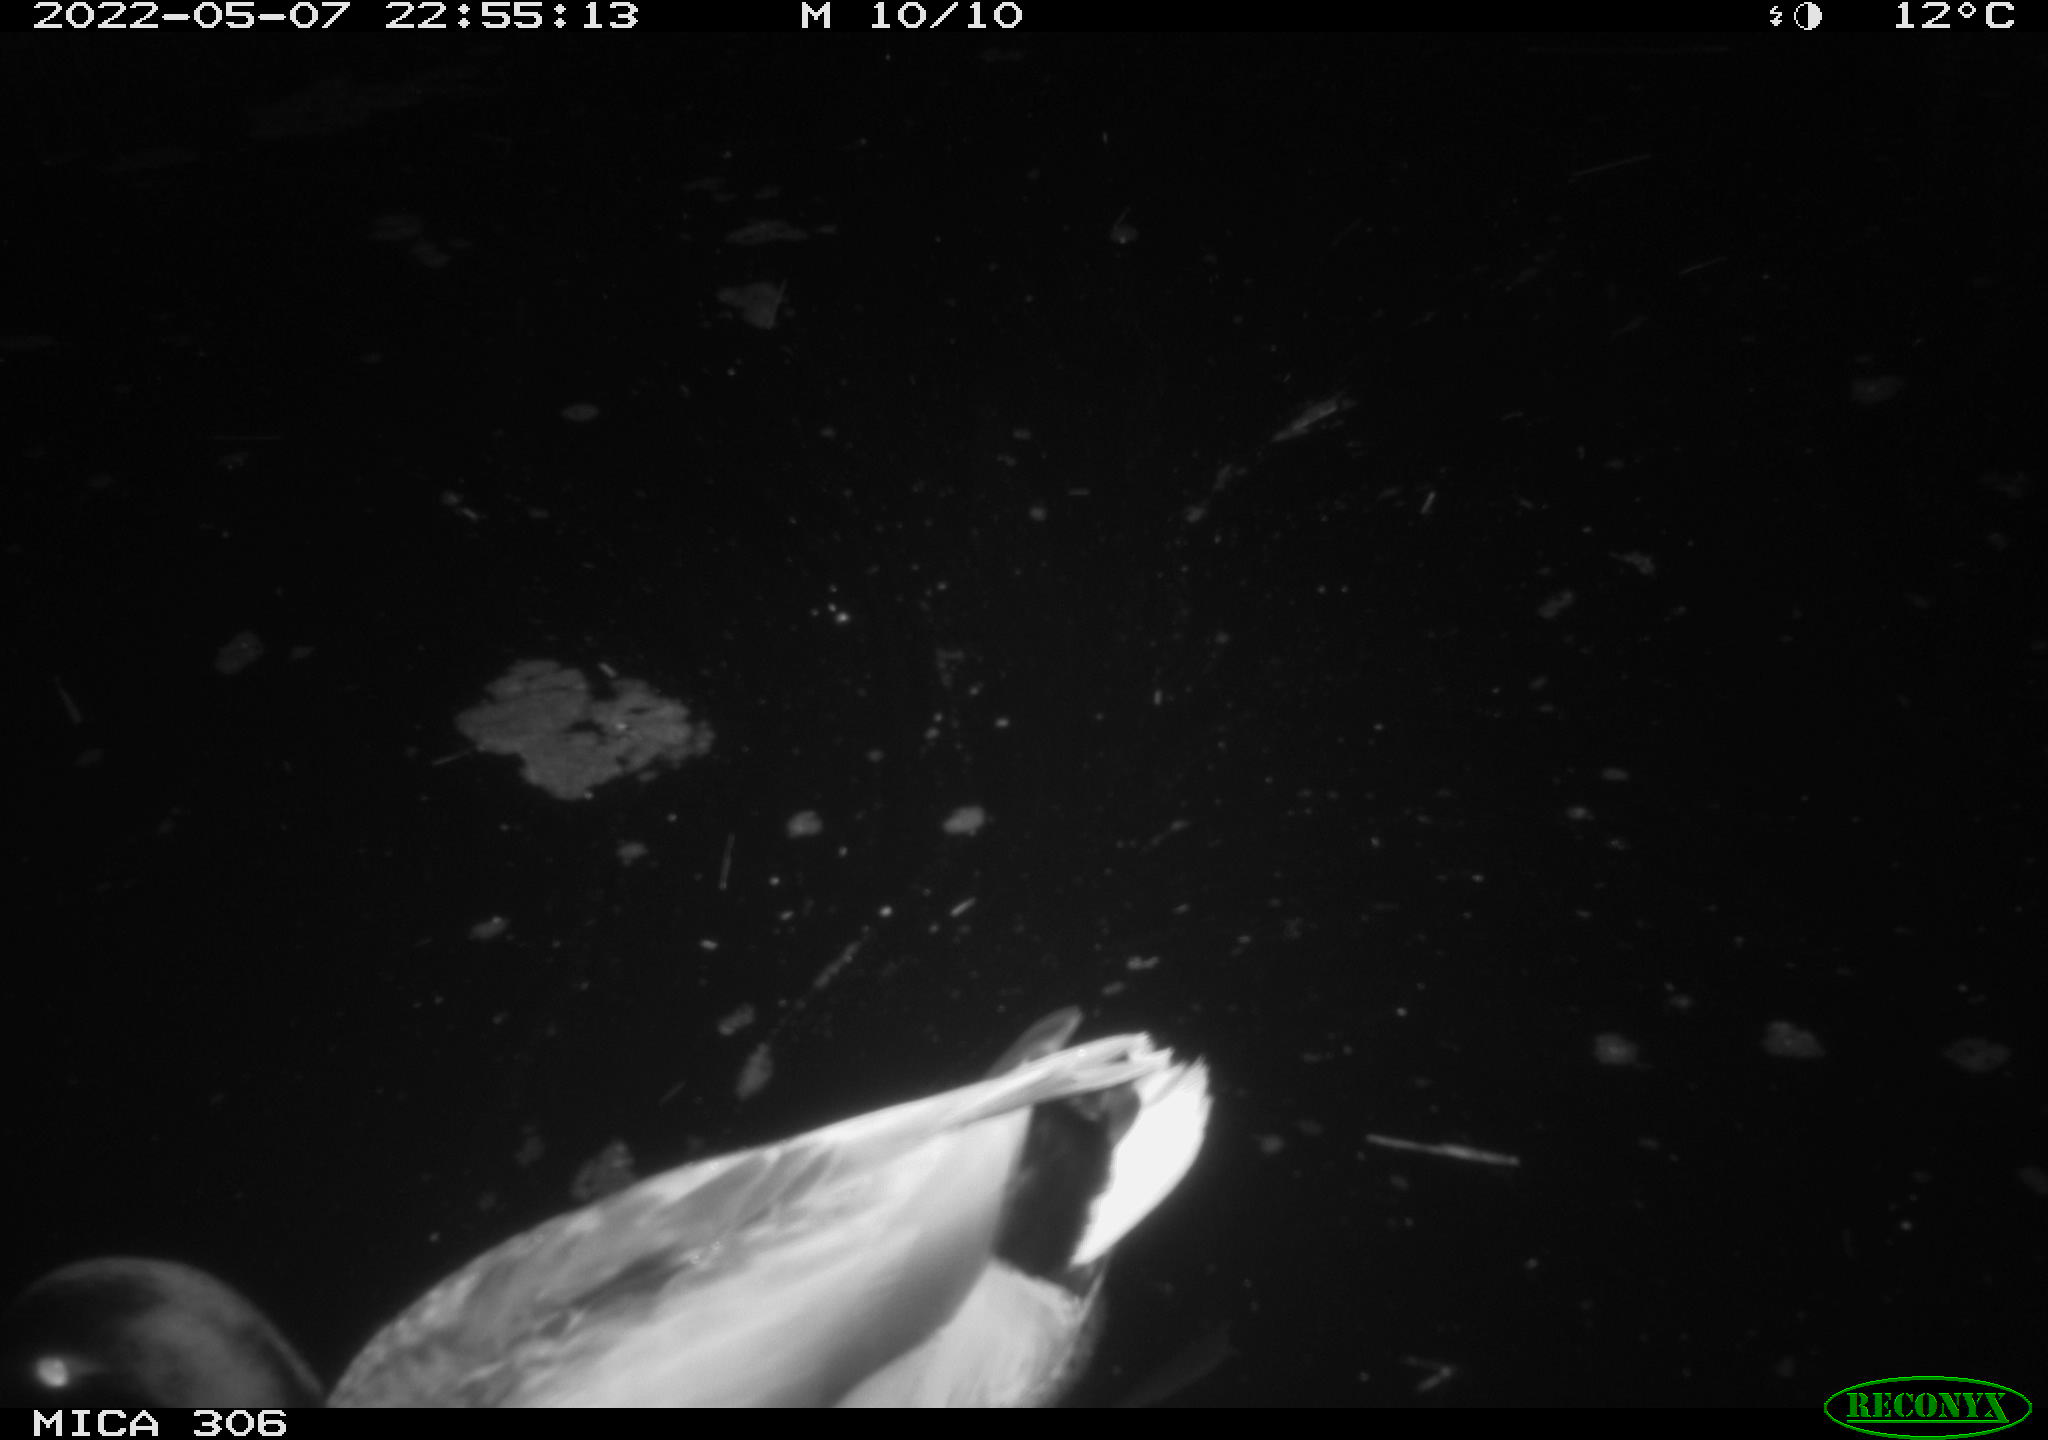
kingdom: Animalia
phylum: Chordata
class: Aves
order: Anseriformes
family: Anatidae
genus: Anas
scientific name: Anas platyrhynchos
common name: Mallard
